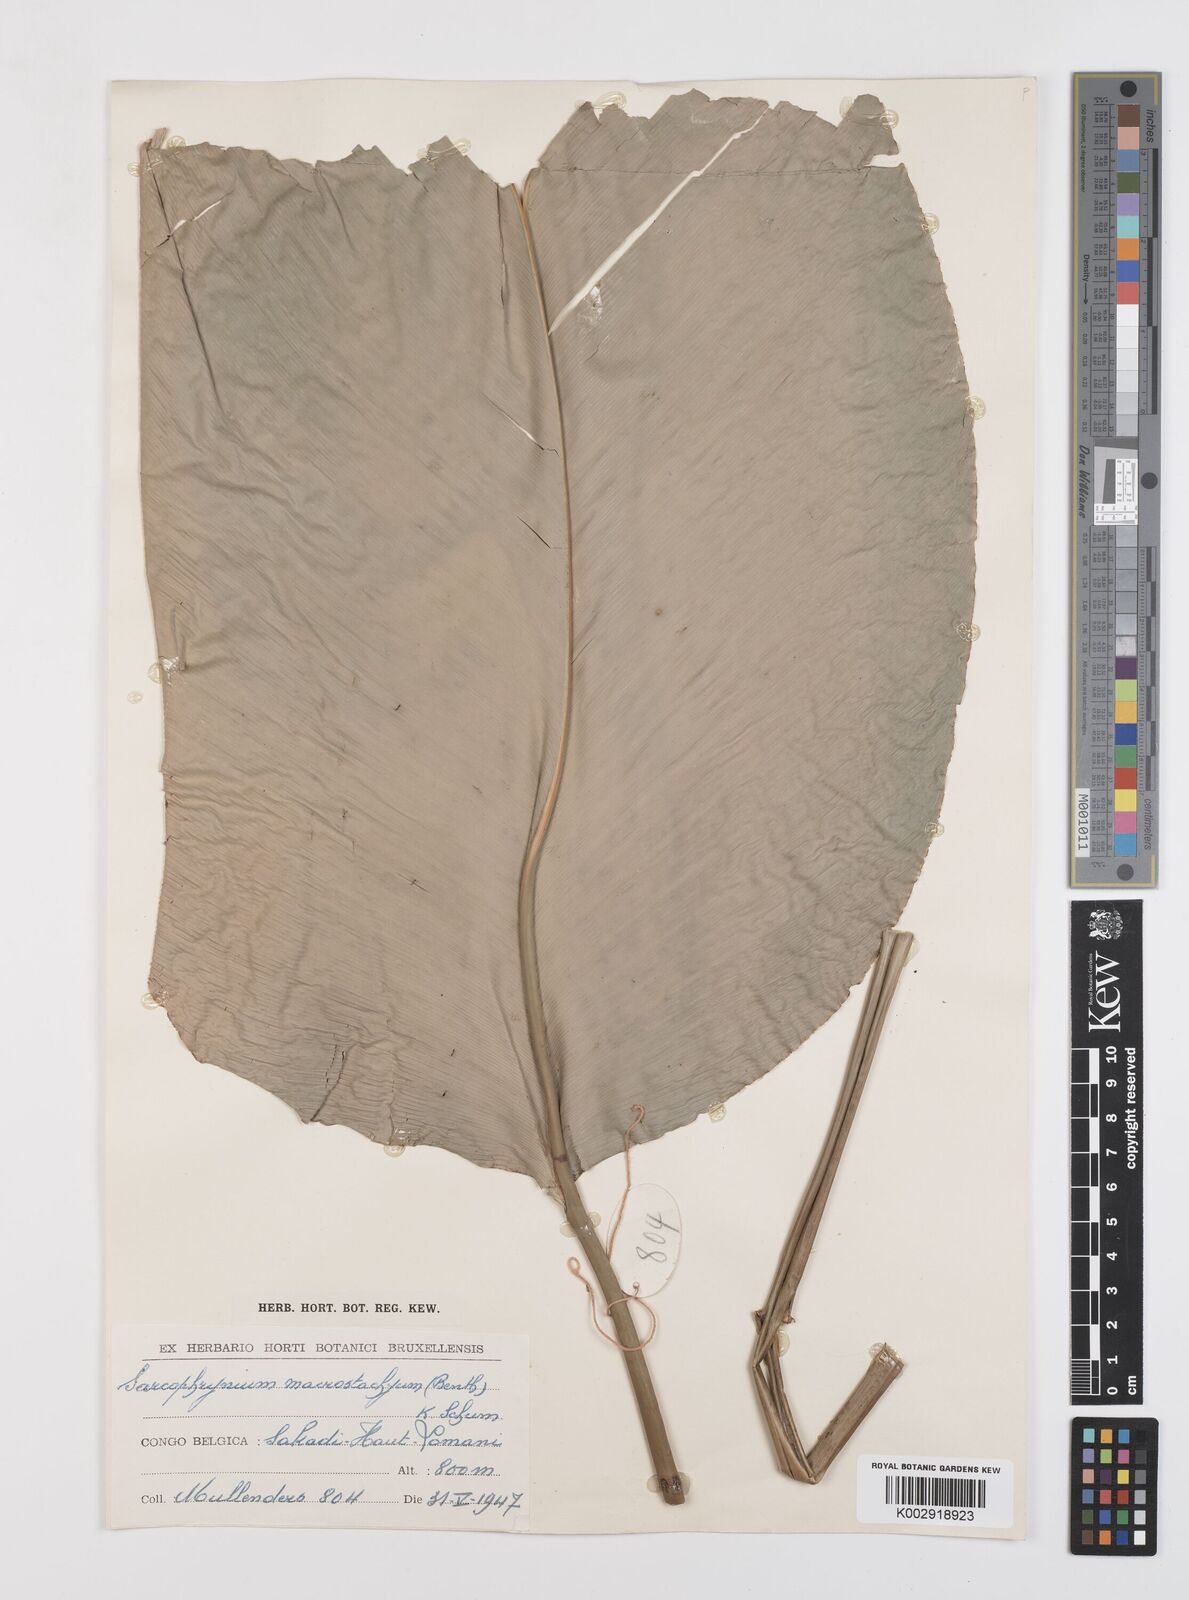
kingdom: Plantae
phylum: Tracheophyta
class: Liliopsida
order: Zingiberales
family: Marantaceae
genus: Megaphrynium
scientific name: Megaphrynium macrostachyum
